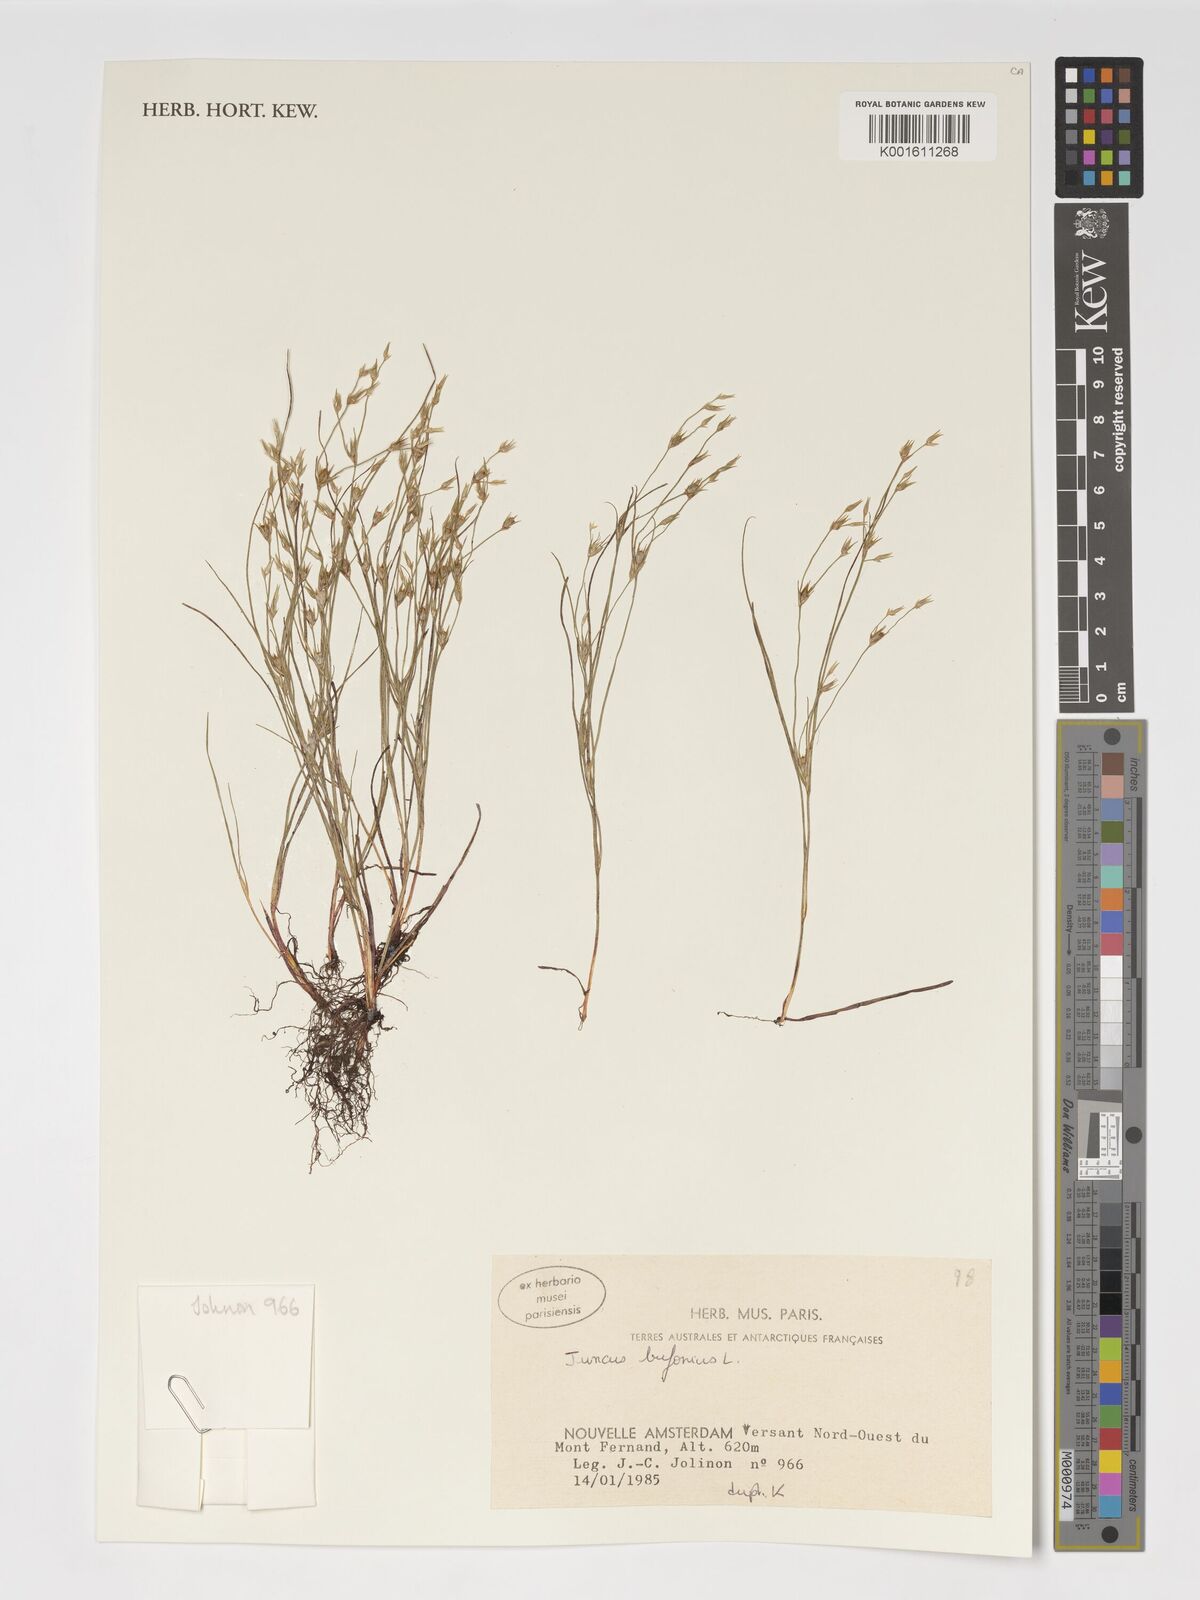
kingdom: Plantae
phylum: Tracheophyta
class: Liliopsida
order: Poales
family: Juncaceae
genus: Juncus
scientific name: Juncus bufonius
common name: Toad rush
